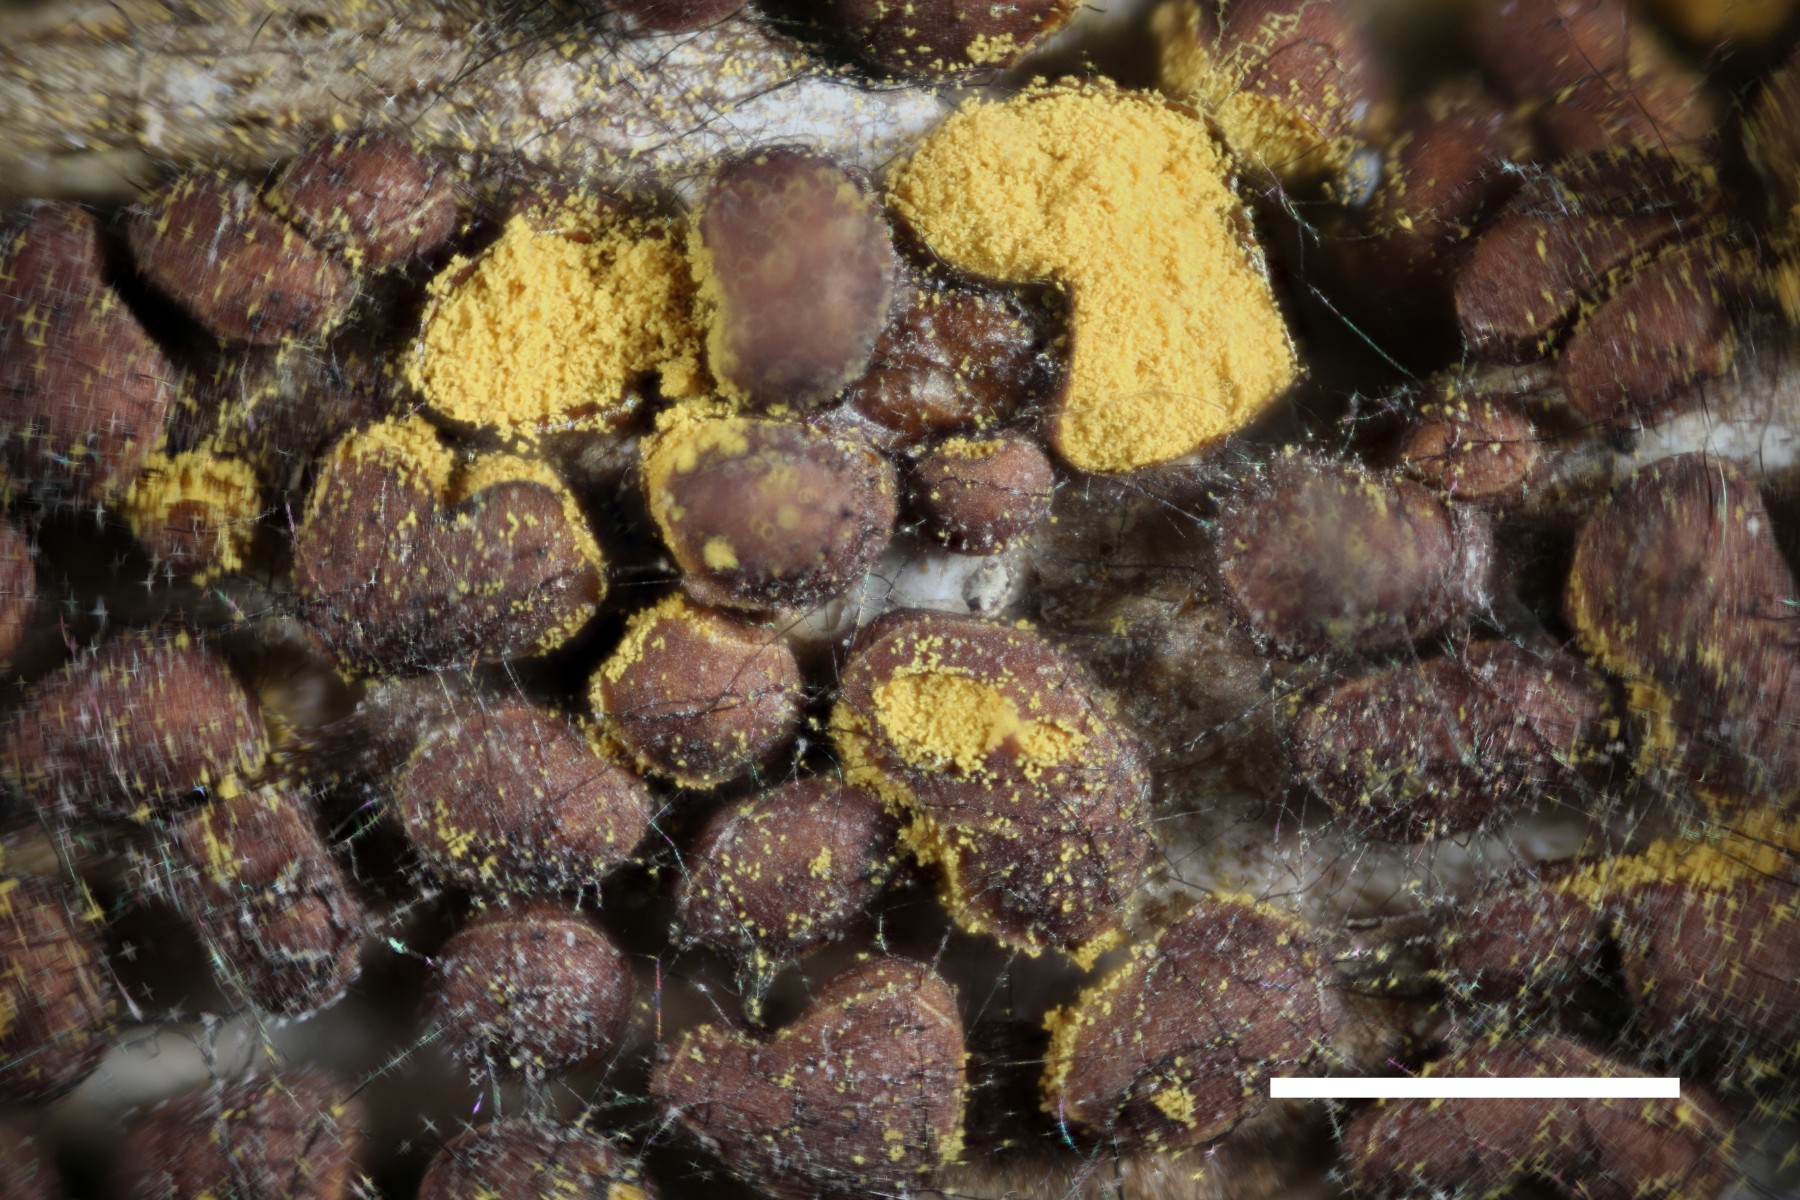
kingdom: Protozoa
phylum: Mycetozoa
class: Myxomycetes
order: Trichiales
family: Trichiaceae
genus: Perichaena
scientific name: Perichaena corticalis
